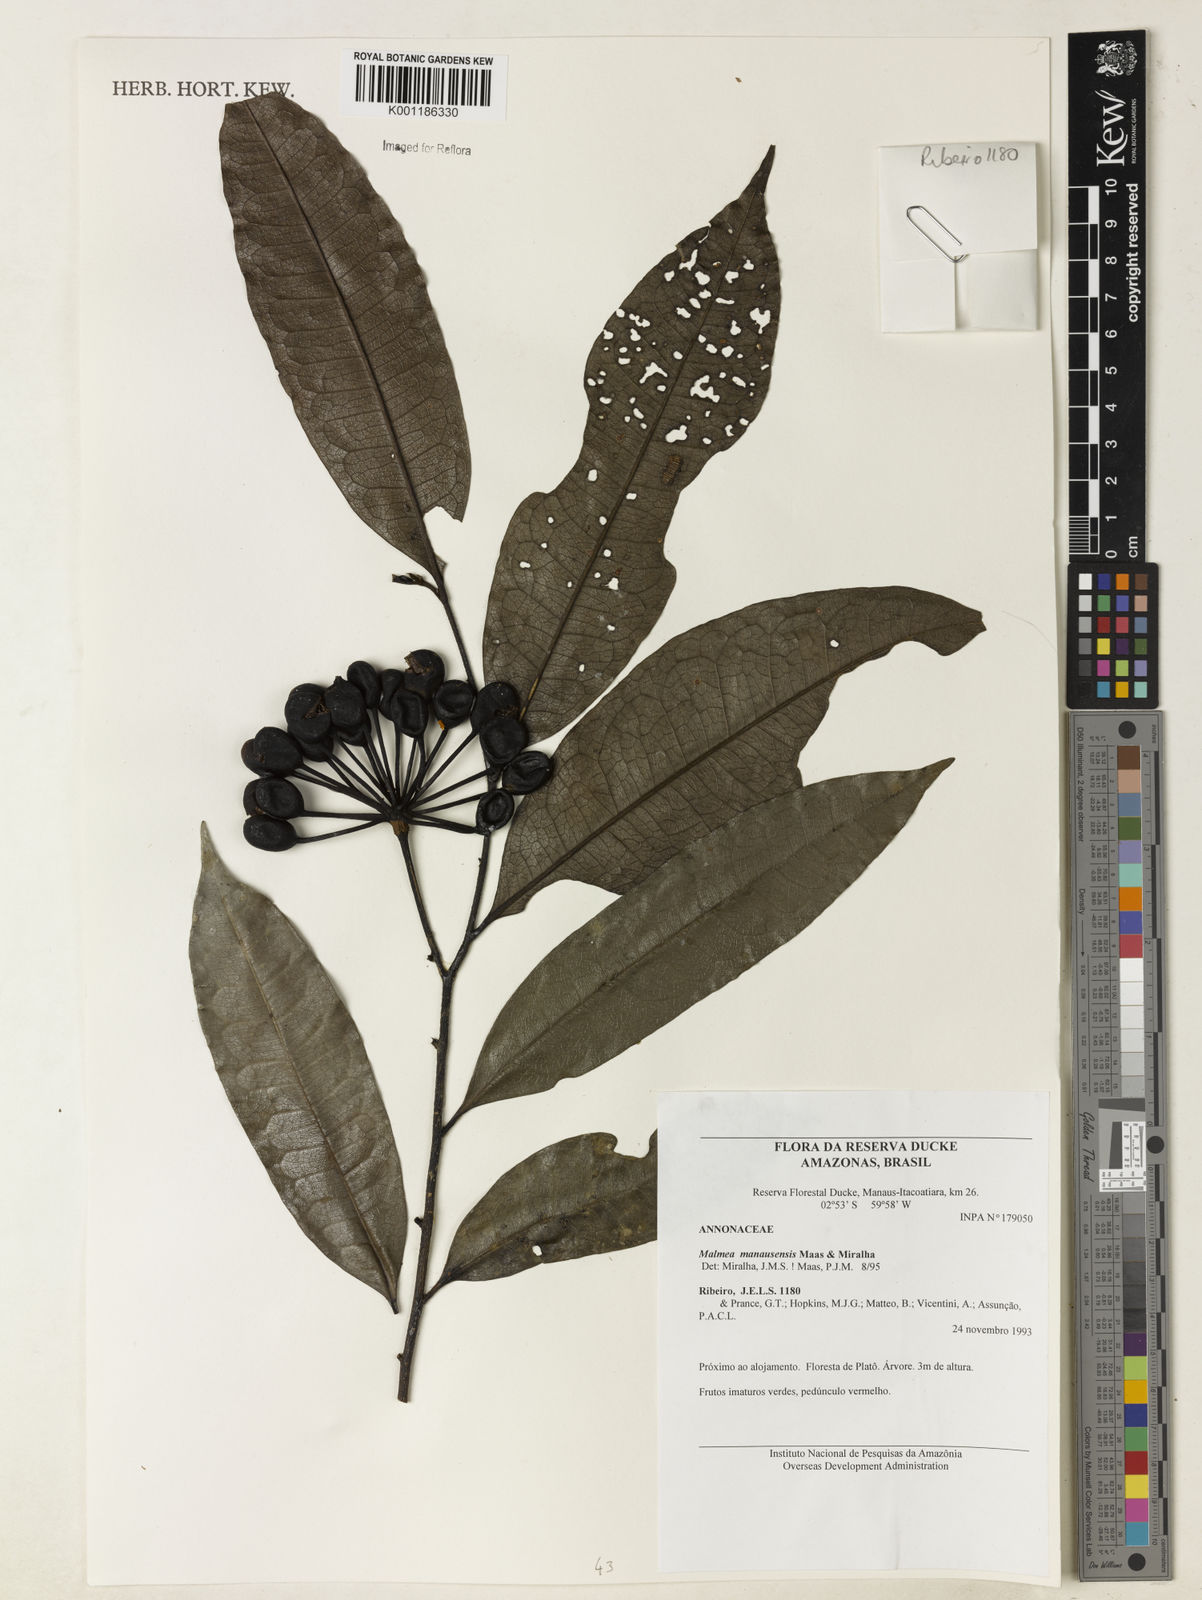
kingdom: Plantae
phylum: Tracheophyta
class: Magnoliopsida
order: Magnoliales
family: Annonaceae
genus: Malmea
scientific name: Malmea manausensis
